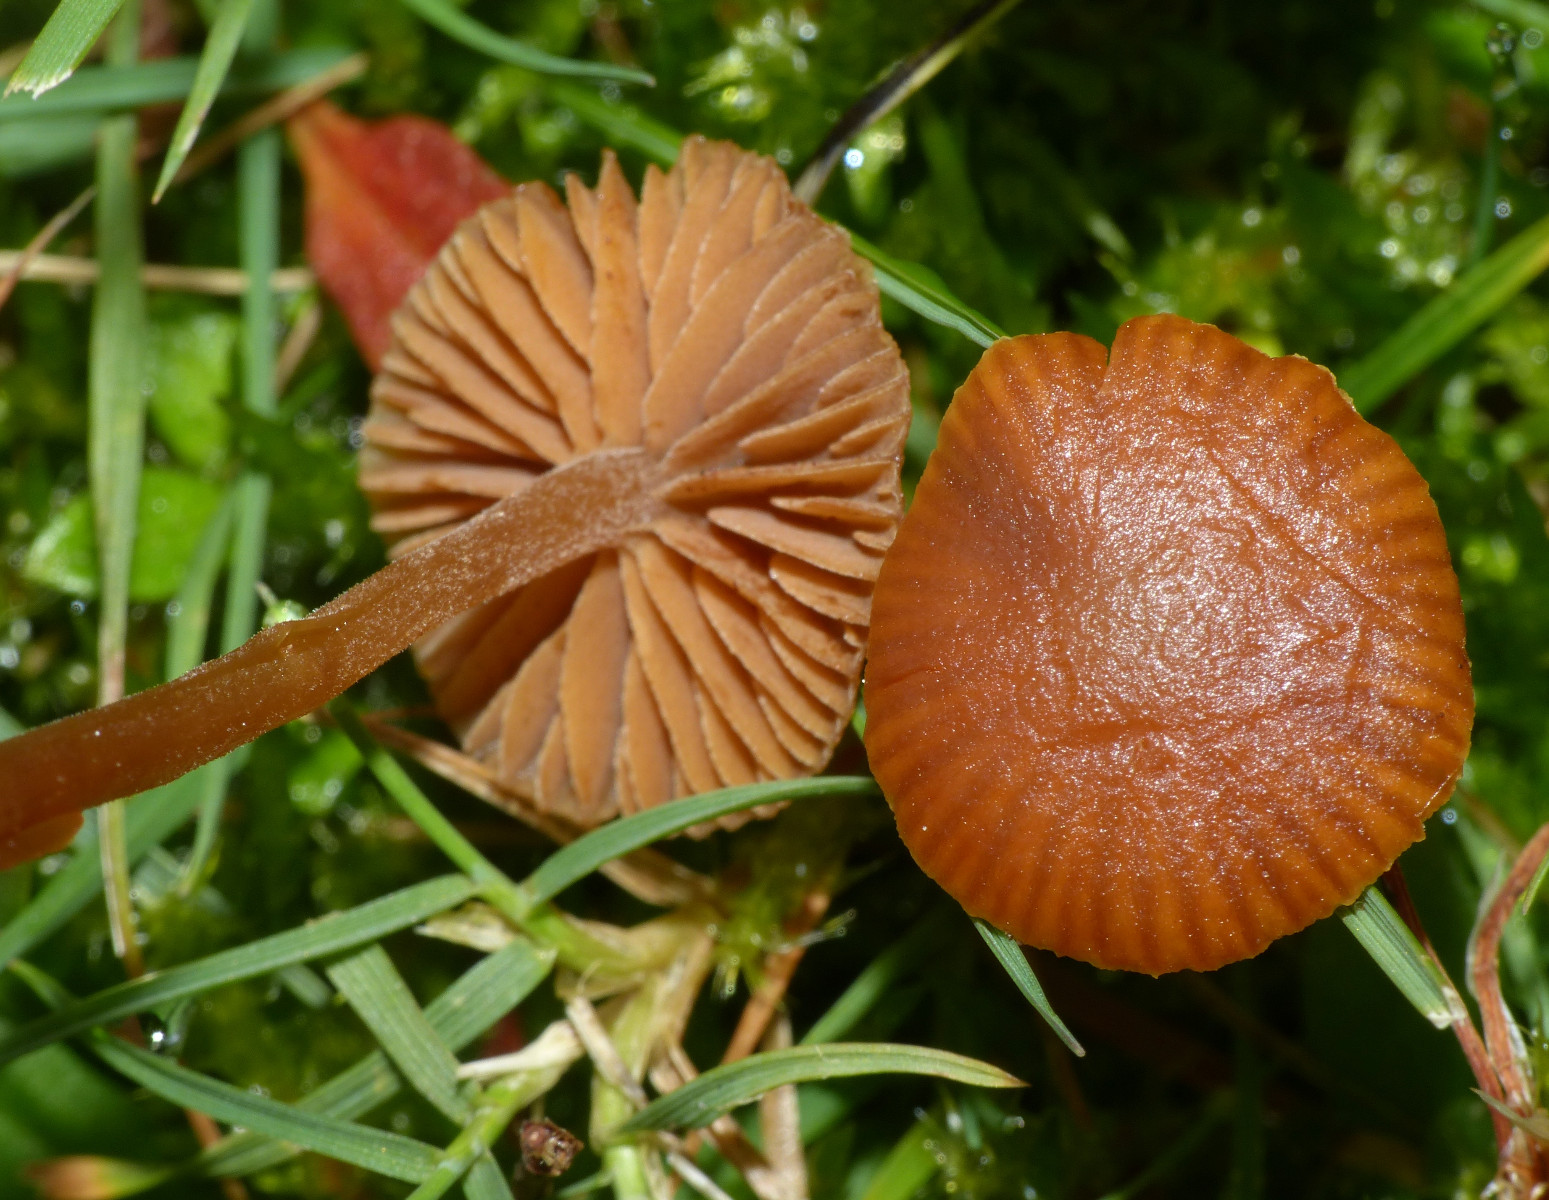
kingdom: Fungi
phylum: Basidiomycota
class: Agaricomycetes
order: Agaricales
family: Hymenogastraceae
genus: Galerina
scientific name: Galerina vittiformis
